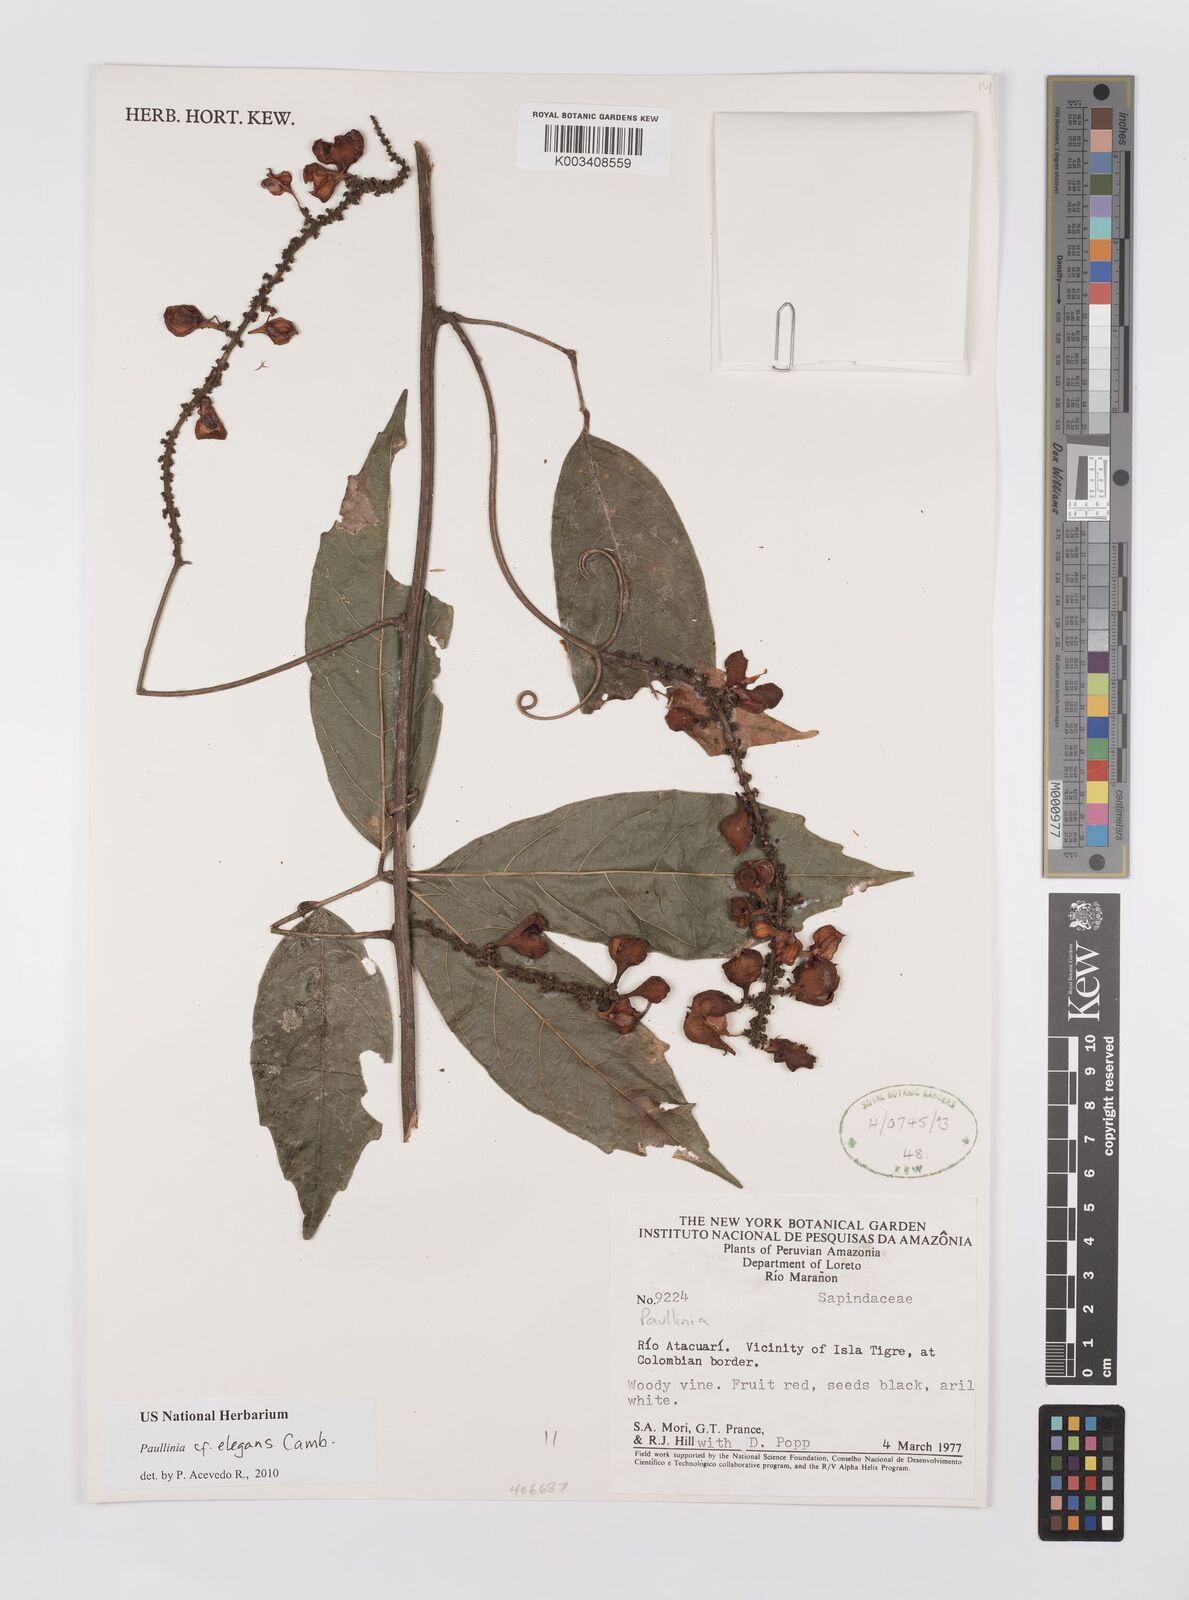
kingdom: Plantae
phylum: Tracheophyta
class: Magnoliopsida
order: Sapindales
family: Sapindaceae
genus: Paullinia
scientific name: Paullinia elegans
